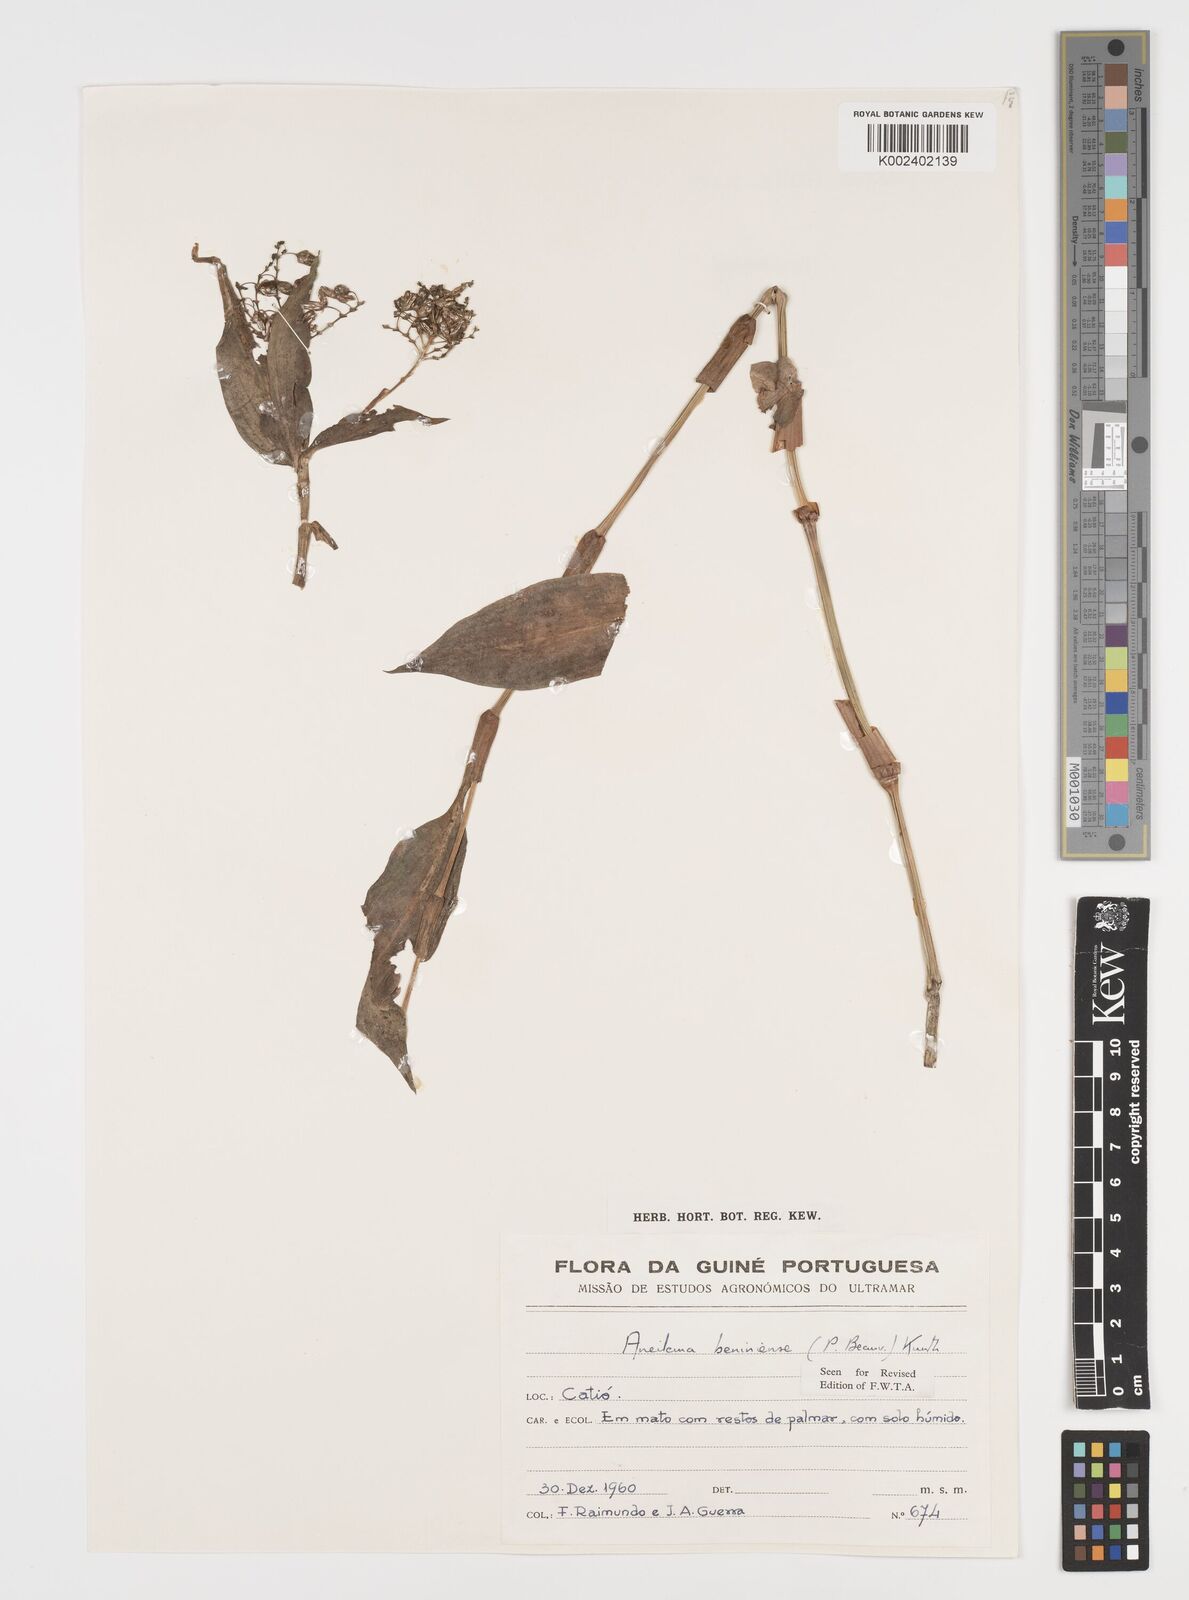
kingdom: Plantae
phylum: Tracheophyta
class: Liliopsida
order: Commelinales
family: Commelinaceae
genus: Aneilema
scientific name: Aneilema beniniense
